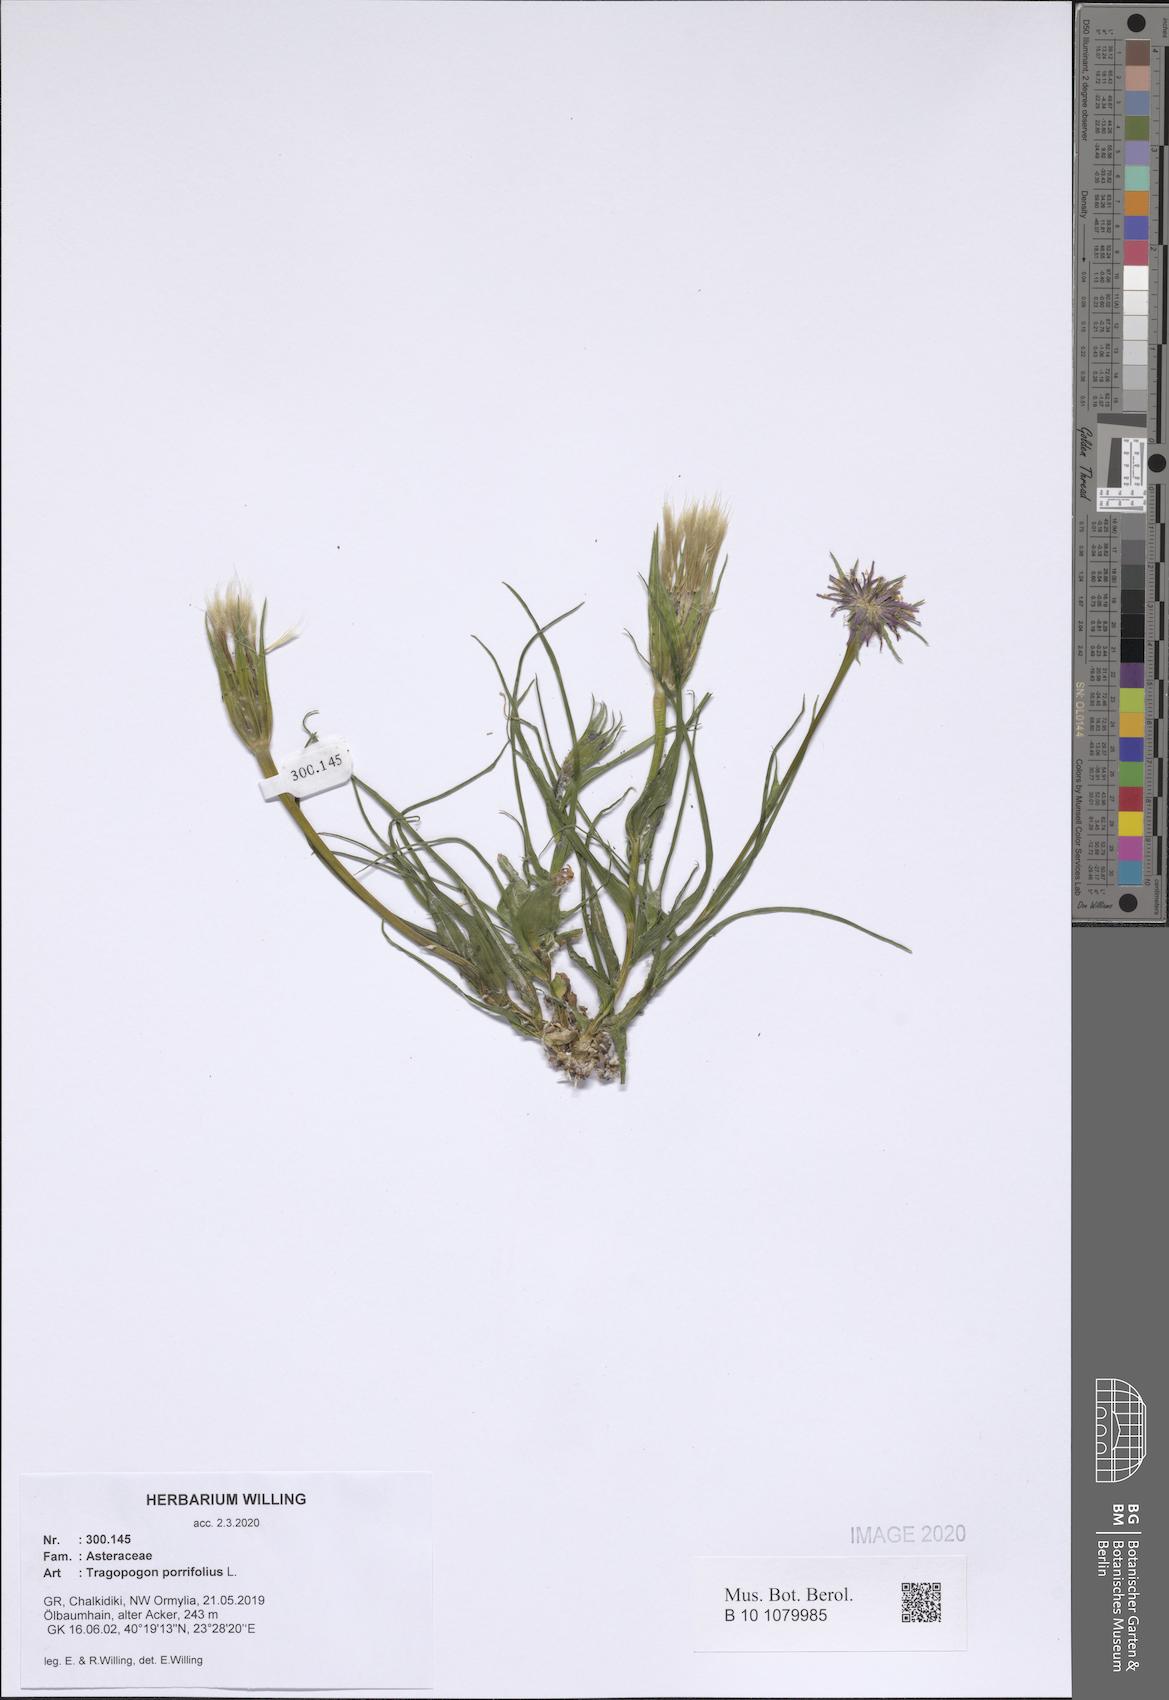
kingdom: Plantae
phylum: Tracheophyta
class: Magnoliopsida
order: Asterales
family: Asteraceae
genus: Tragopogon
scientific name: Tragopogon porrifolius
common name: Salsify
